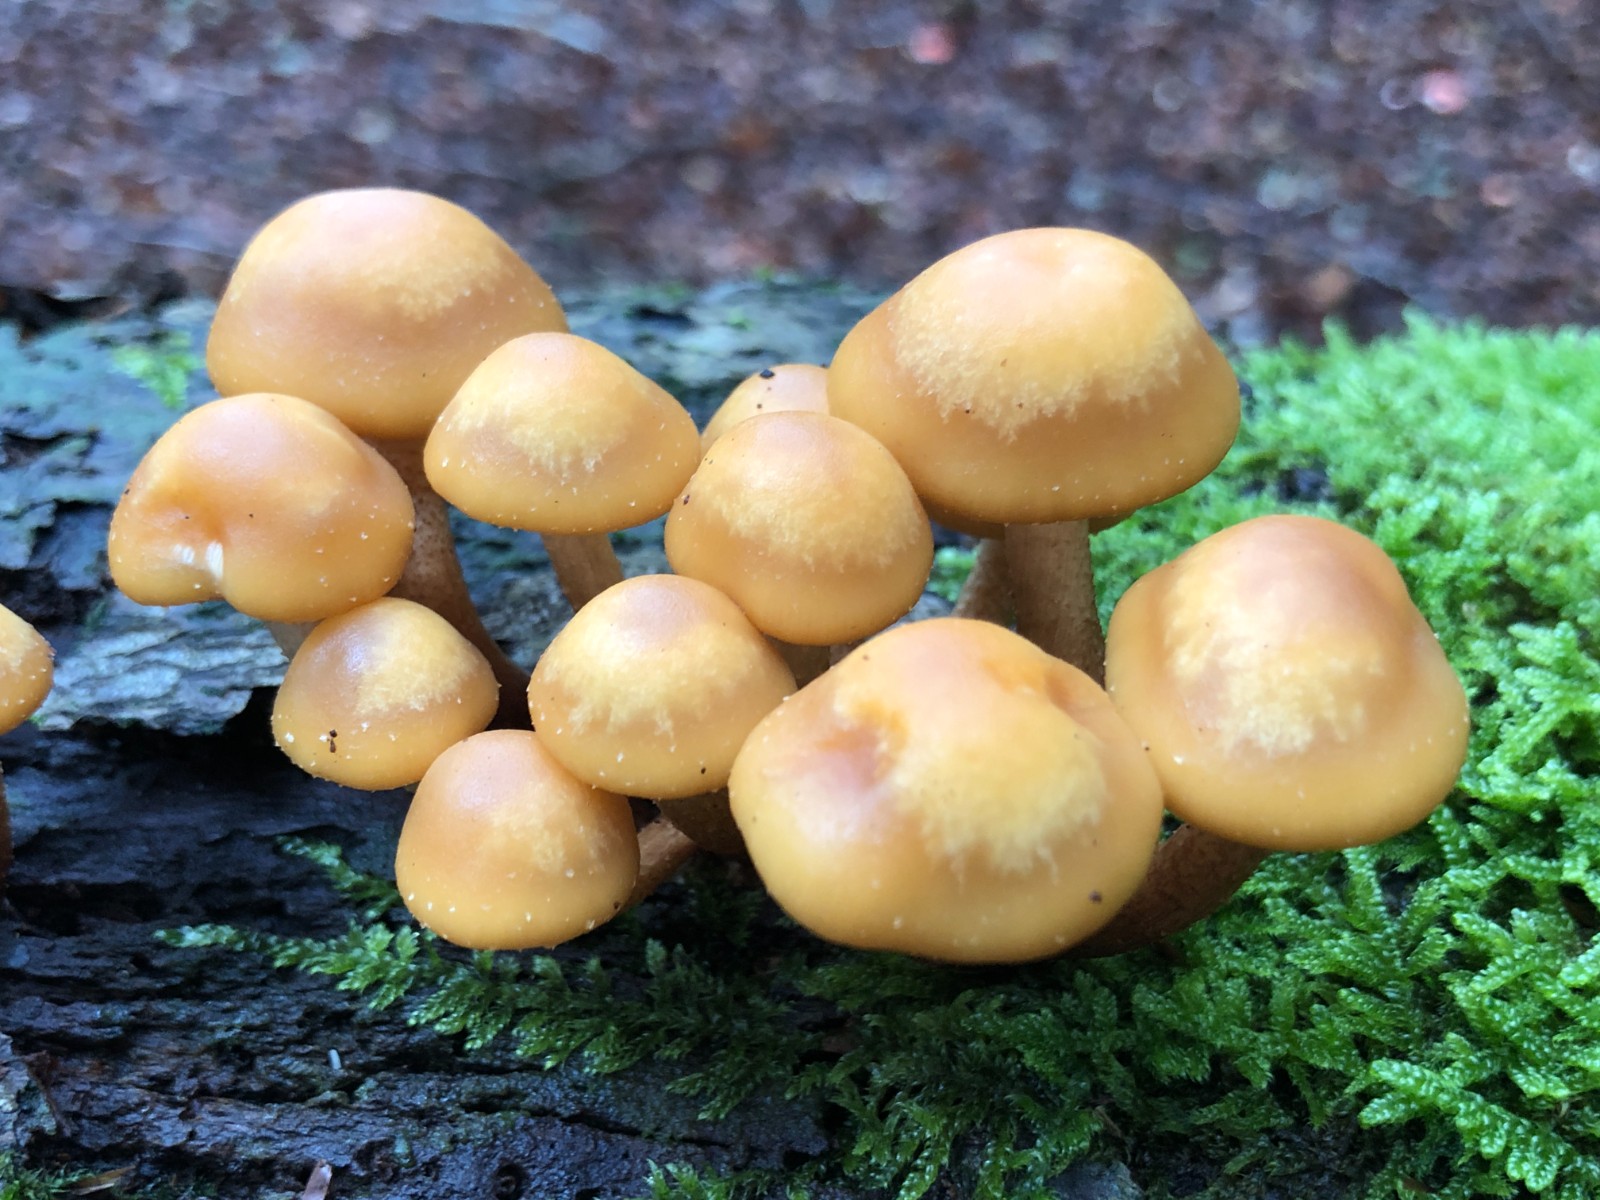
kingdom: Fungi
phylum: Basidiomycota
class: Agaricomycetes
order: Agaricales
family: Strophariaceae
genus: Kuehneromyces
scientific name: Kuehneromyces mutabilis
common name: foranderlig skælhat
